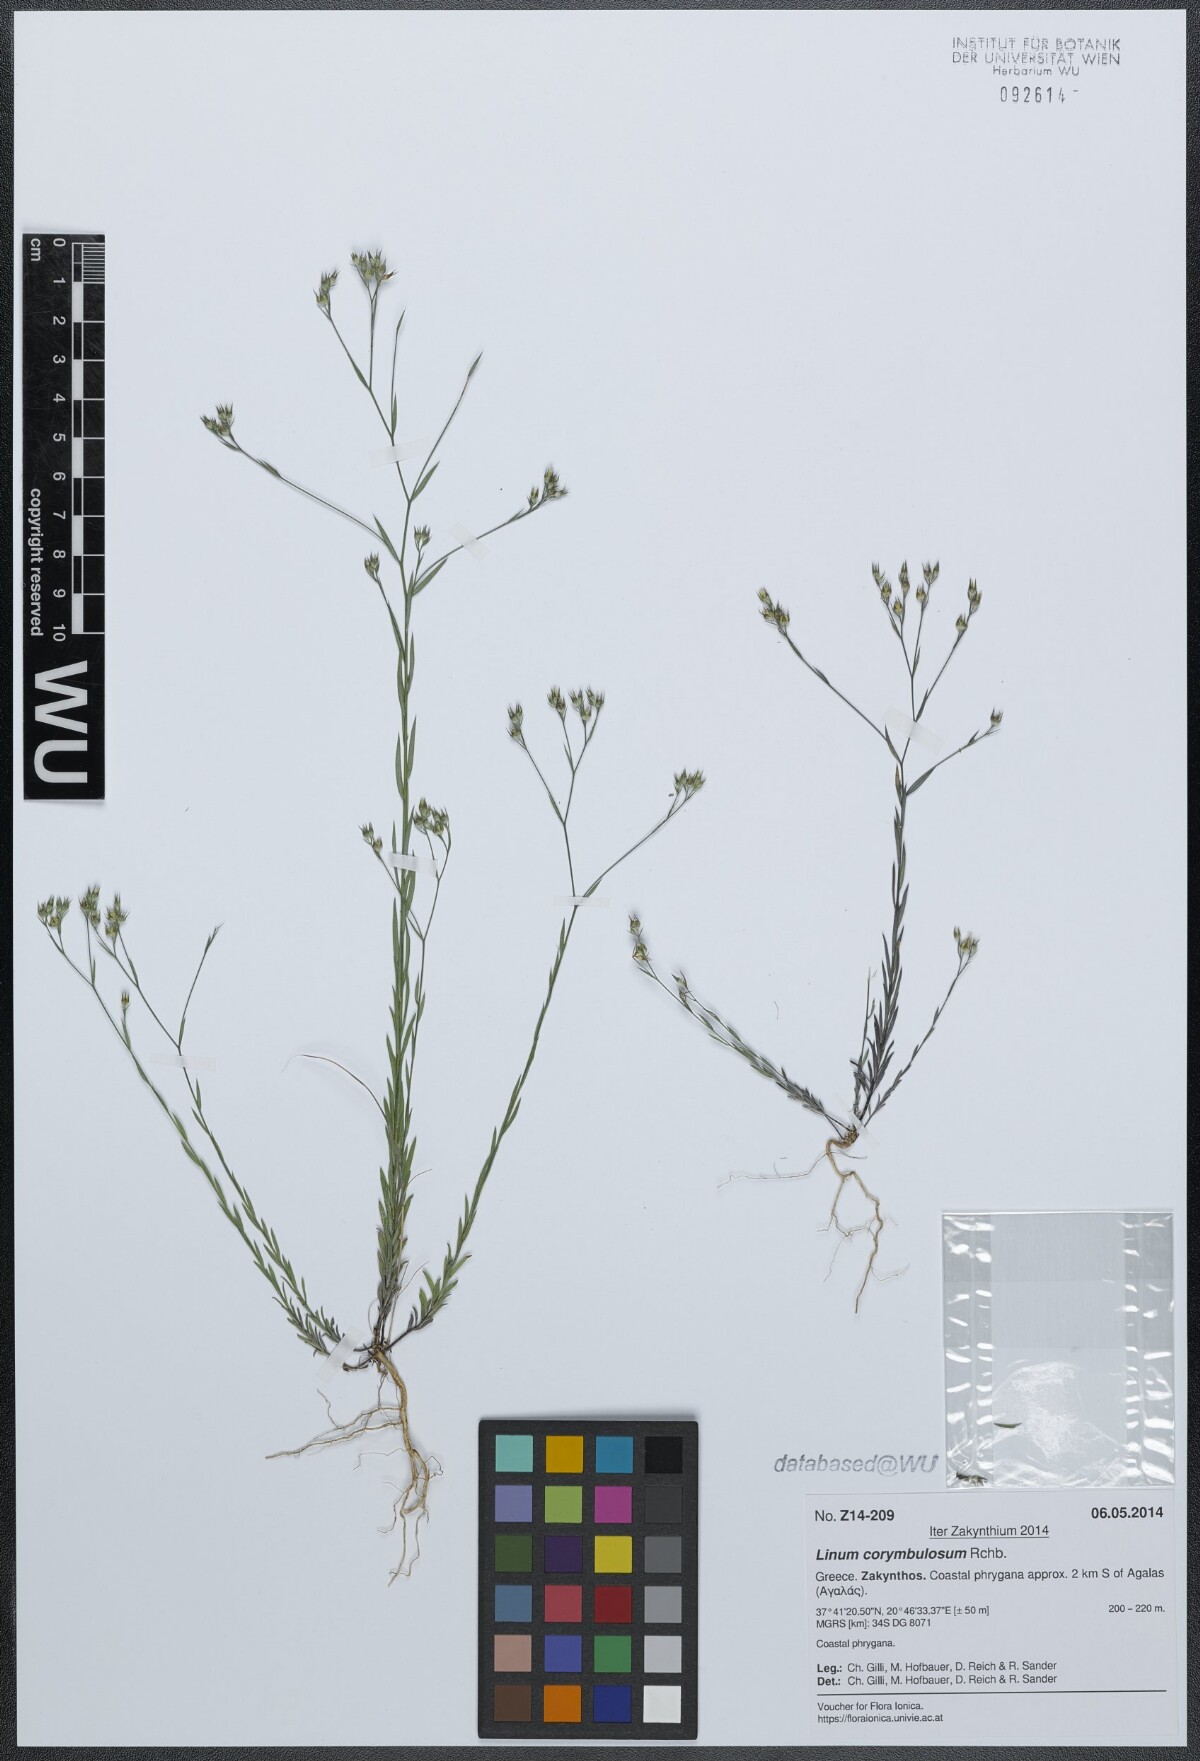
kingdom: Plantae
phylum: Tracheophyta
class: Magnoliopsida
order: Malpighiales
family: Linaceae
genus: Linum
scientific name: Linum corymbulosum
